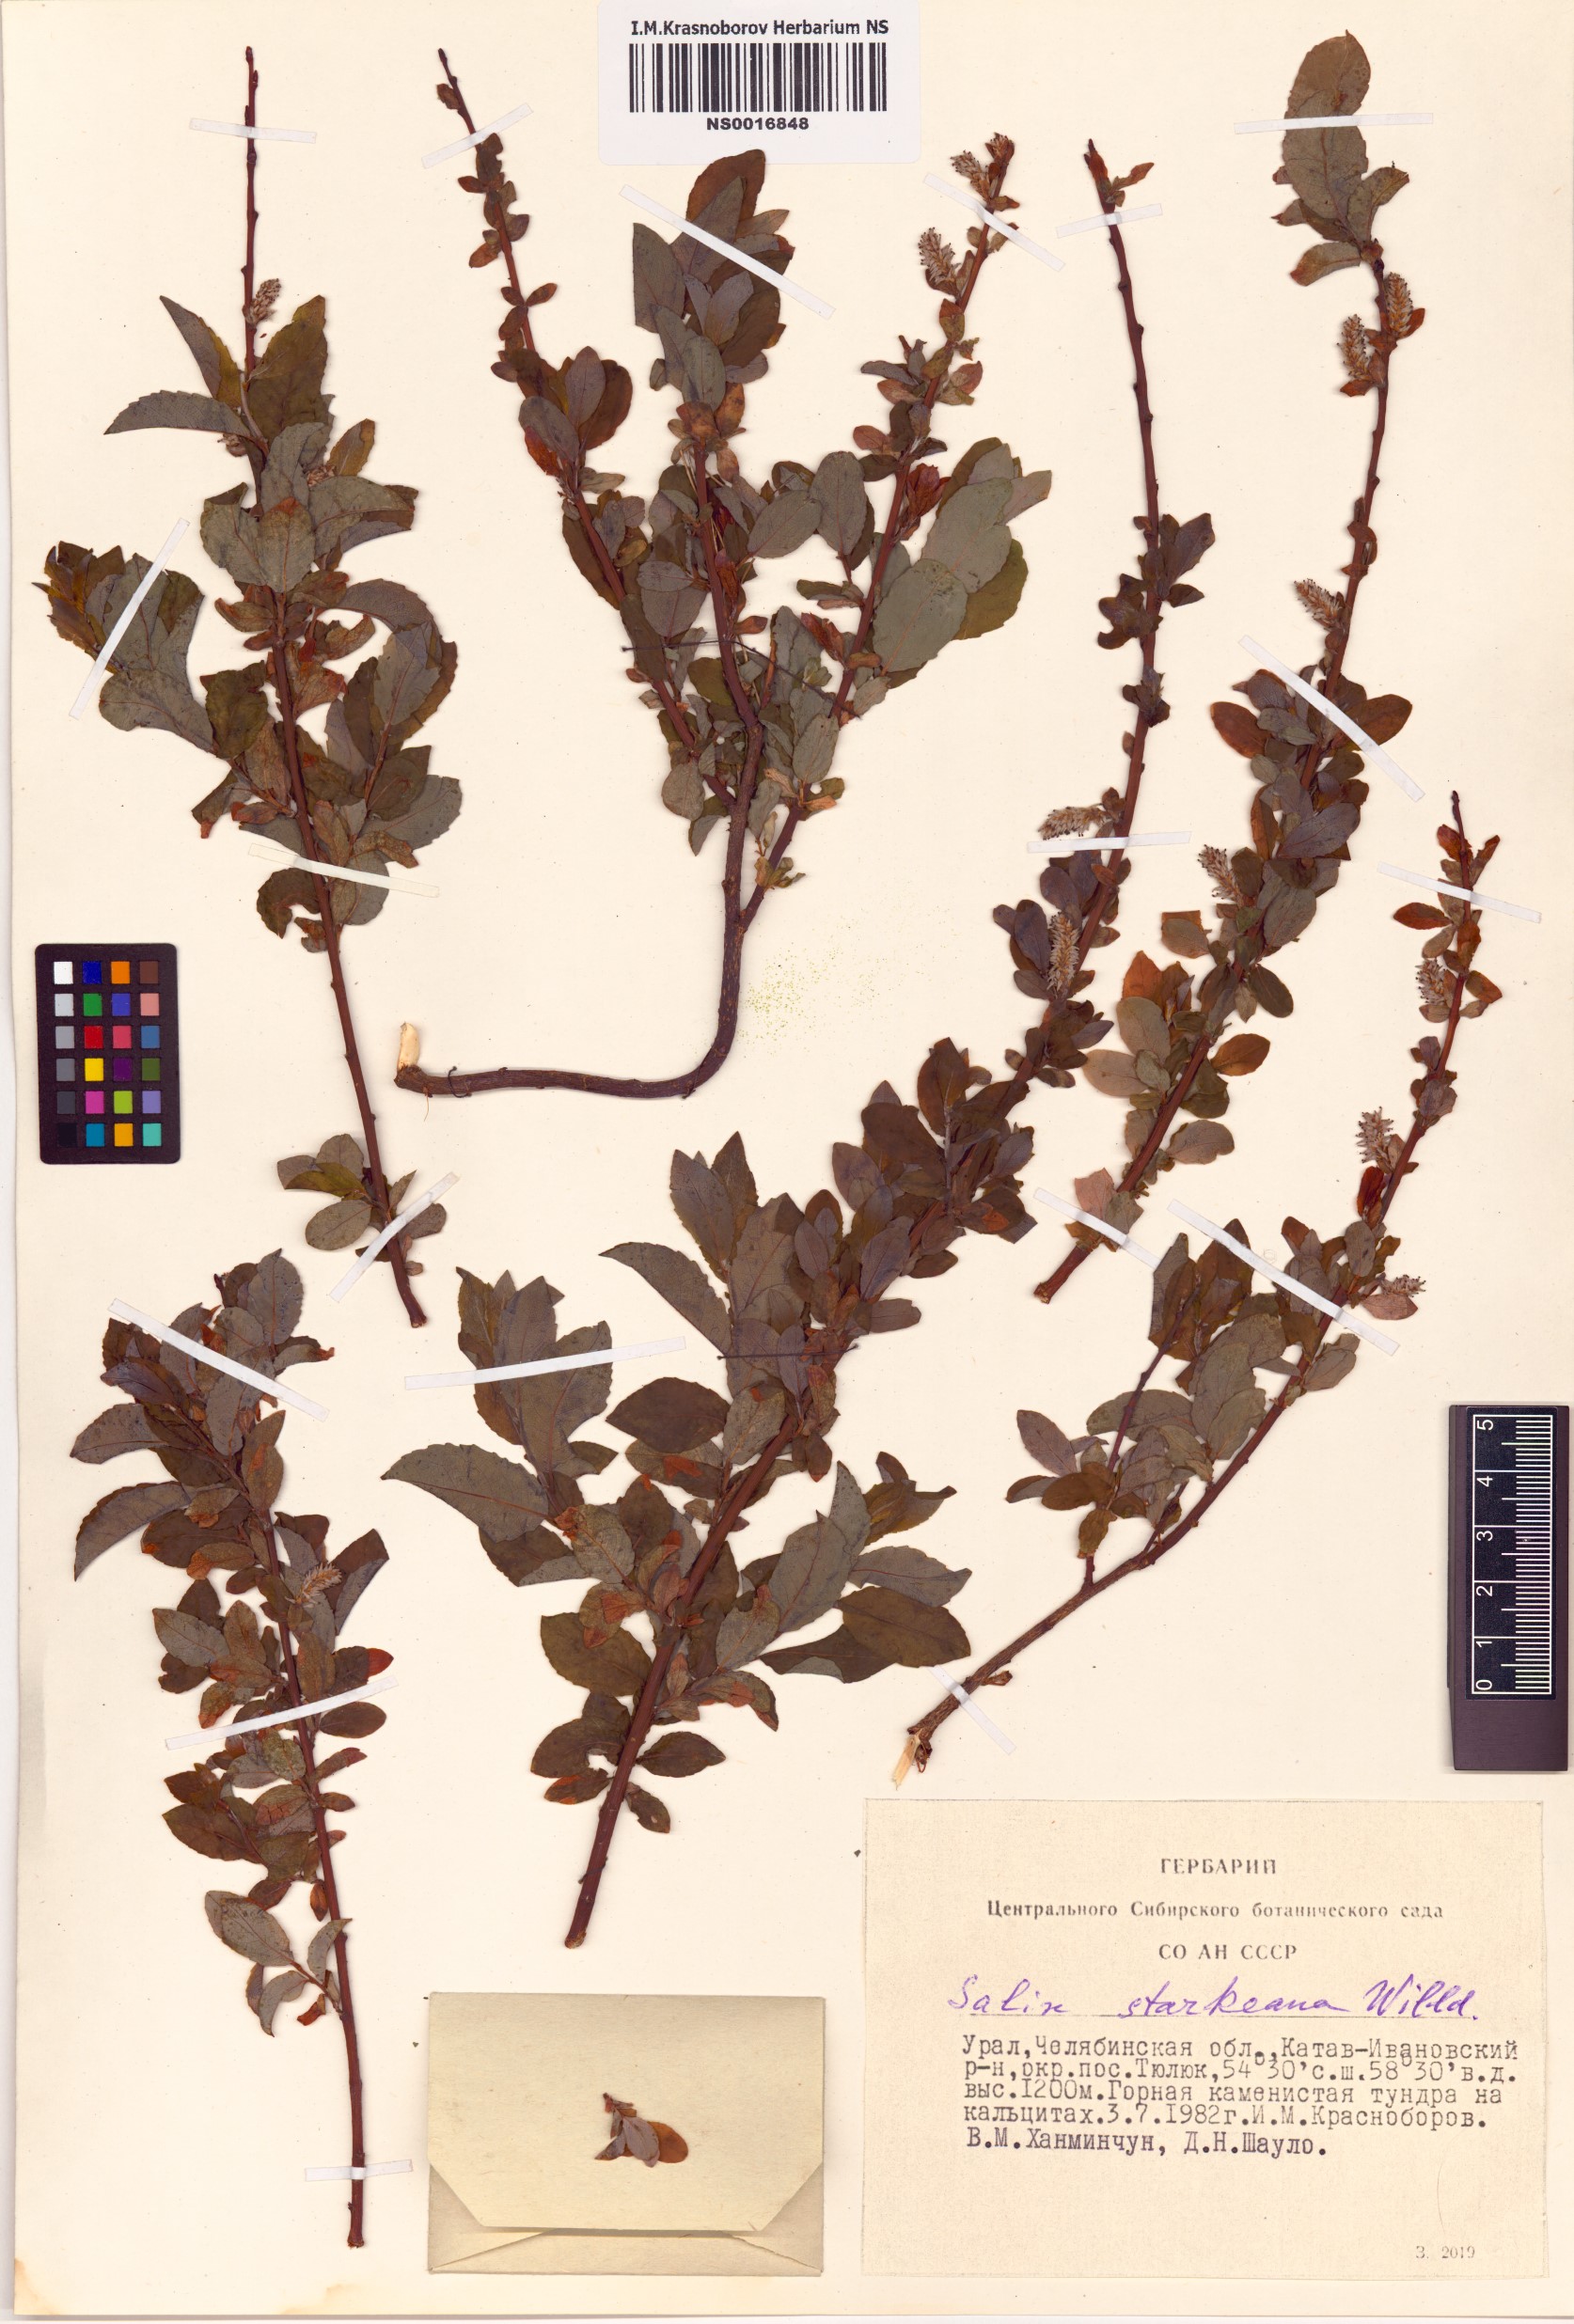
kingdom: Plantae
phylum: Tracheophyta
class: Magnoliopsida
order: Malpighiales
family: Salicaceae
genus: Salix
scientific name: Salix starkeana
